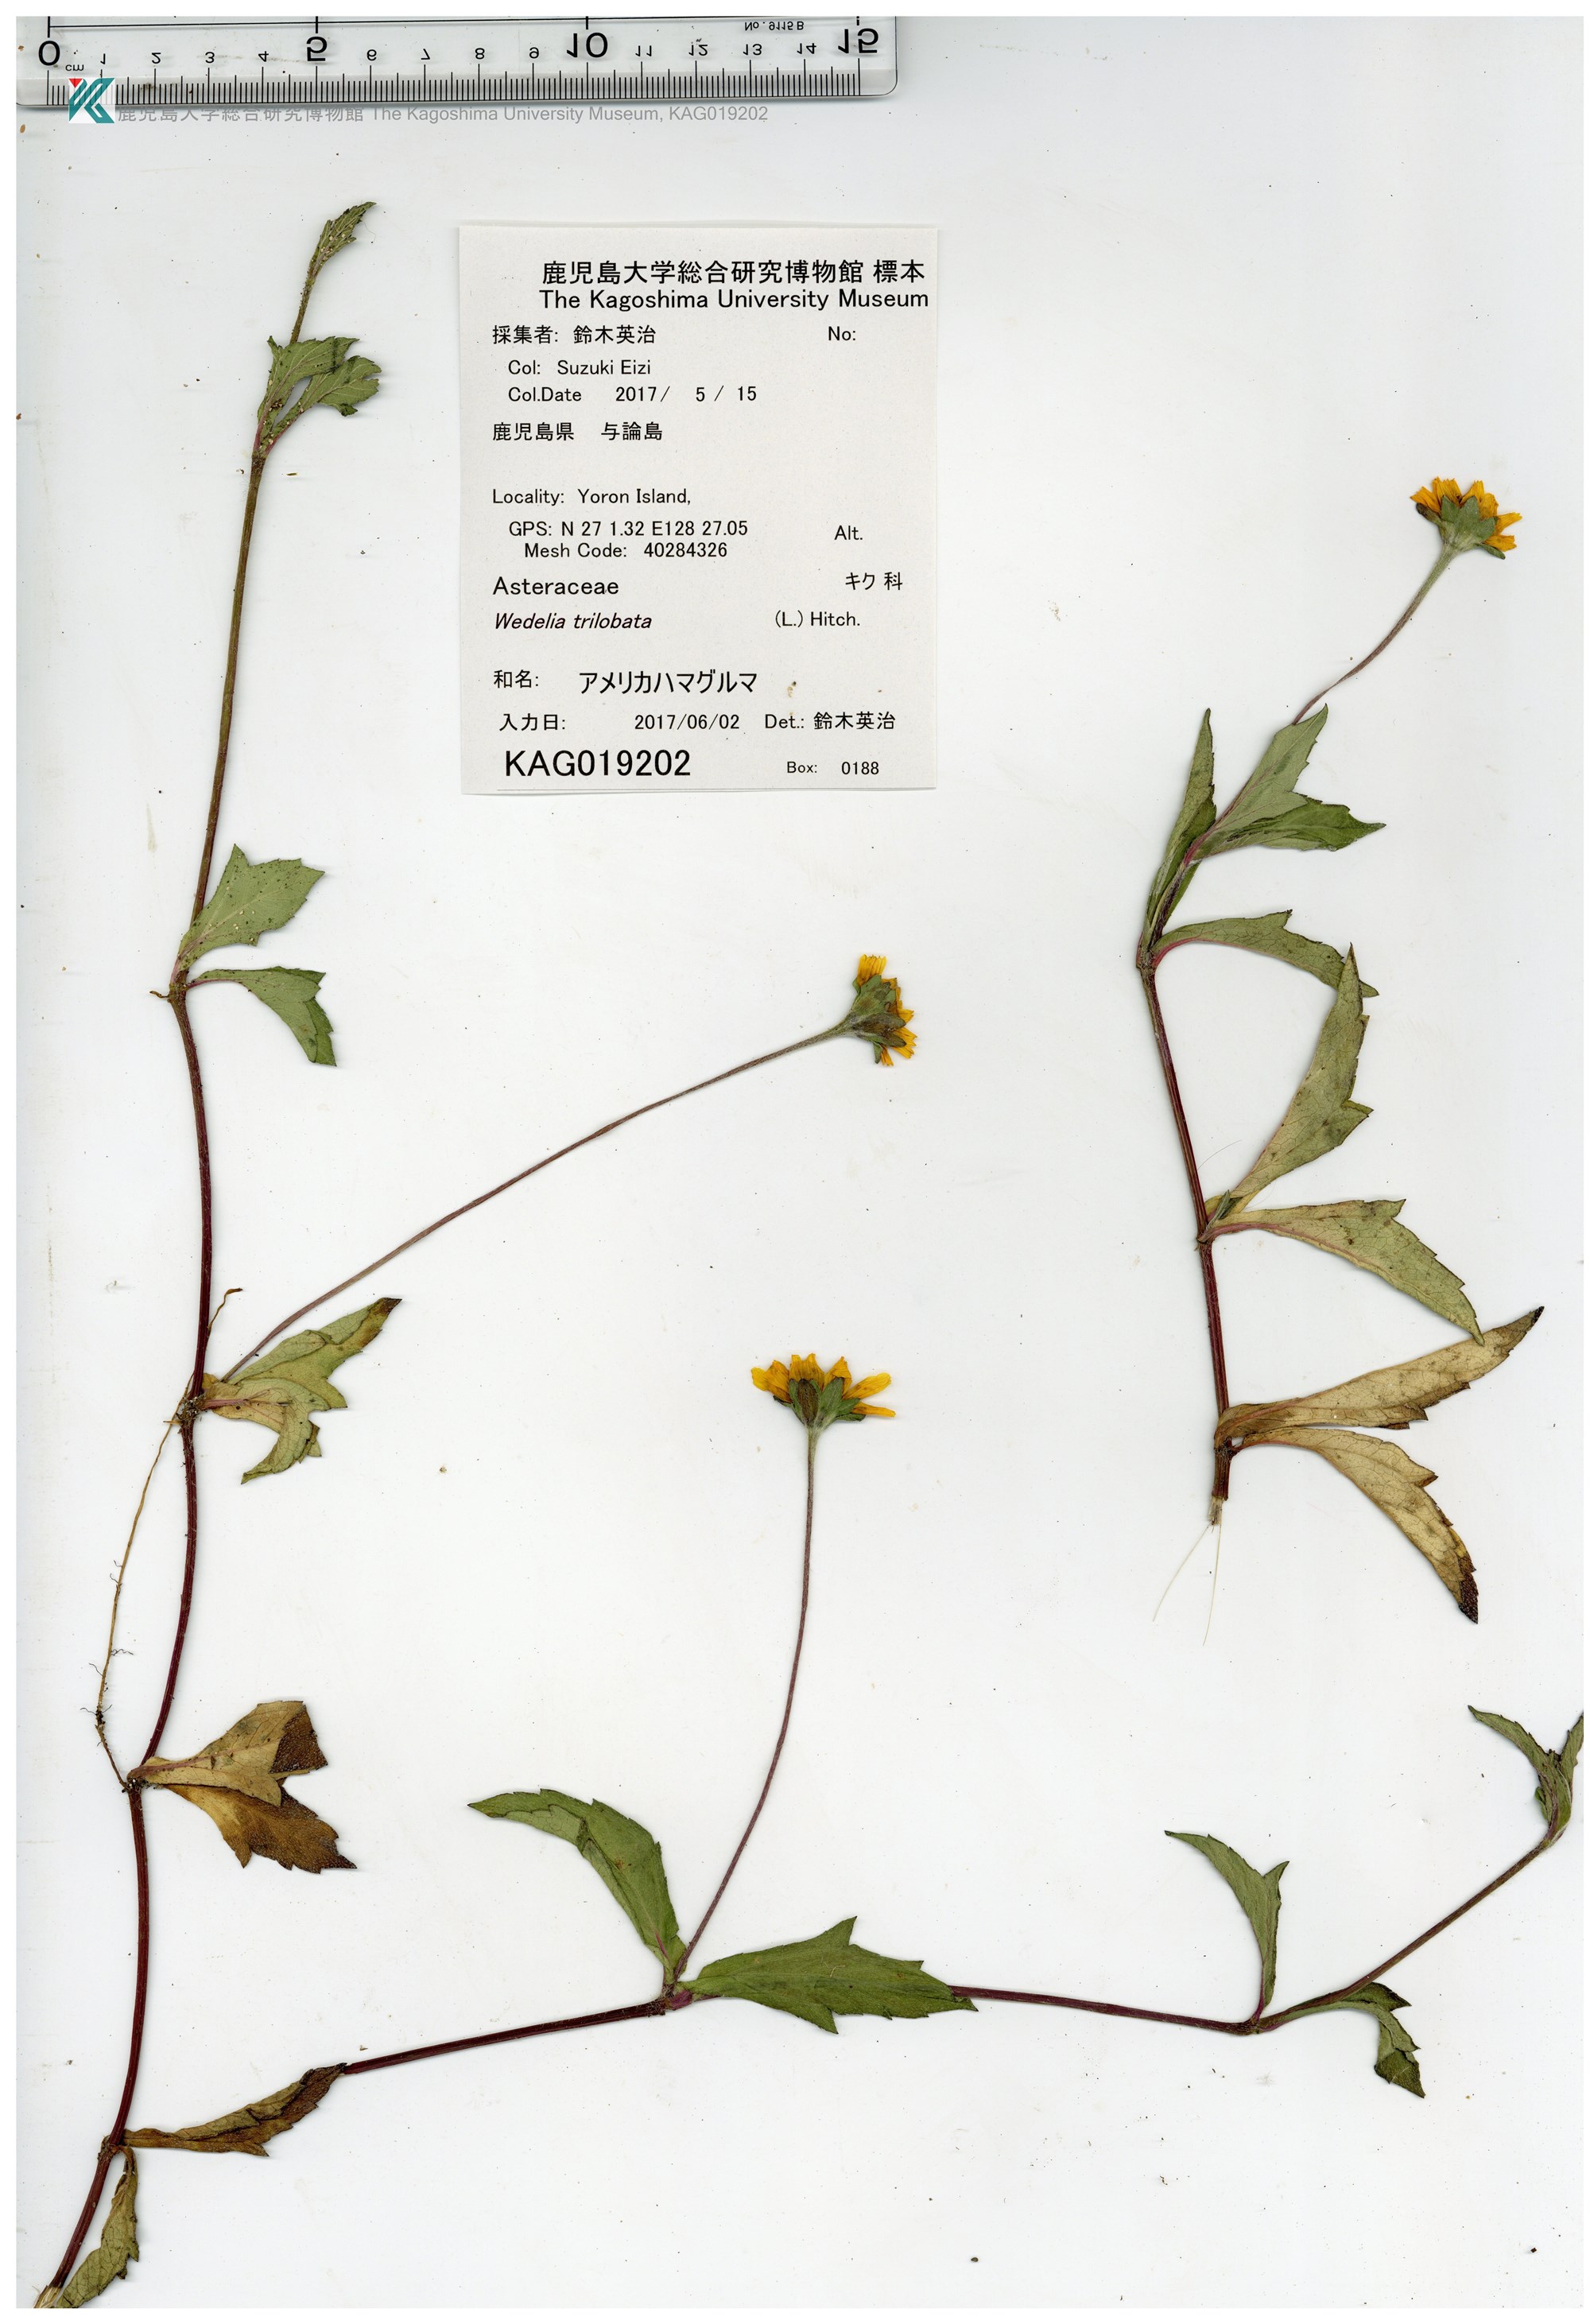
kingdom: Plantae
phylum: Tracheophyta
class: Magnoliopsida
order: Asterales
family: Asteraceae
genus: Sphagneticola
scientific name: Sphagneticola trilobata
